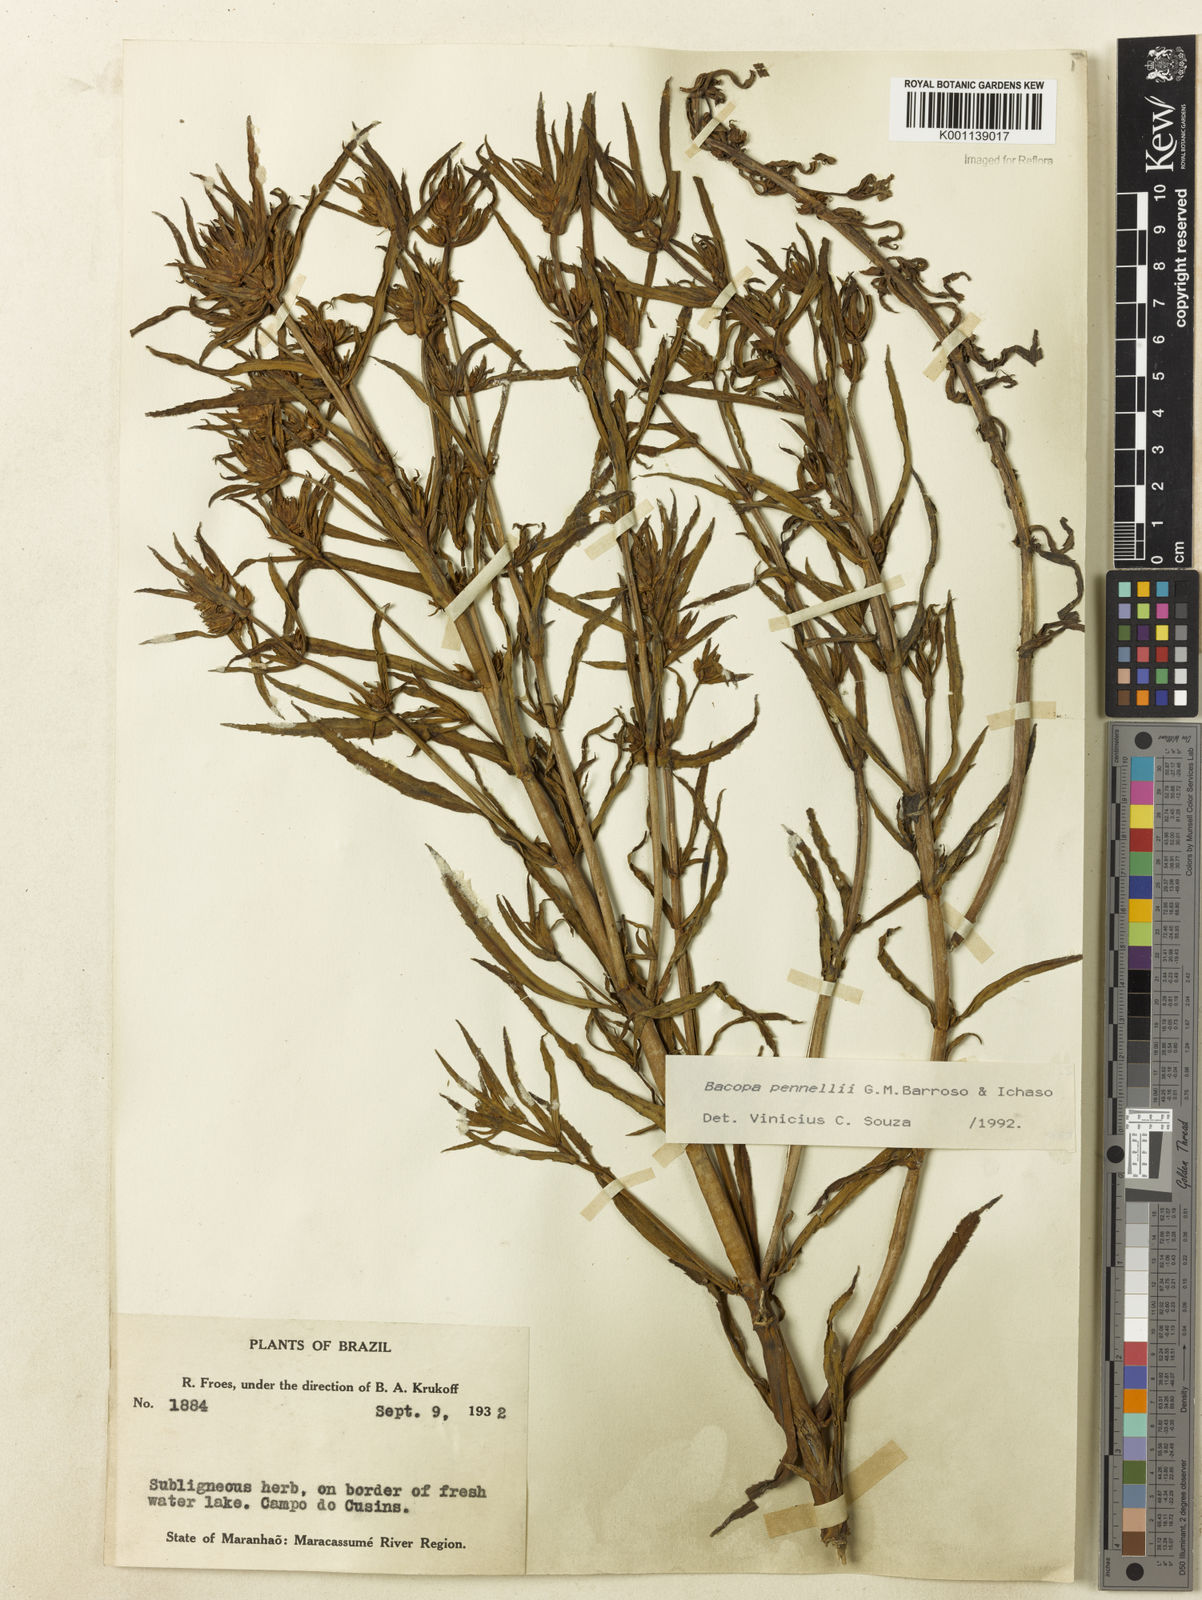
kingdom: Plantae
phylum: Tracheophyta
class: Magnoliopsida
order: Lamiales
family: Plantaginaceae
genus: Bacopa
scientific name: Bacopa pennellii
